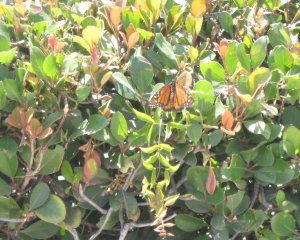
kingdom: Animalia
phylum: Arthropoda
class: Insecta
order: Lepidoptera
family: Nymphalidae
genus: Danaus
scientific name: Danaus plexippus
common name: Monarch
